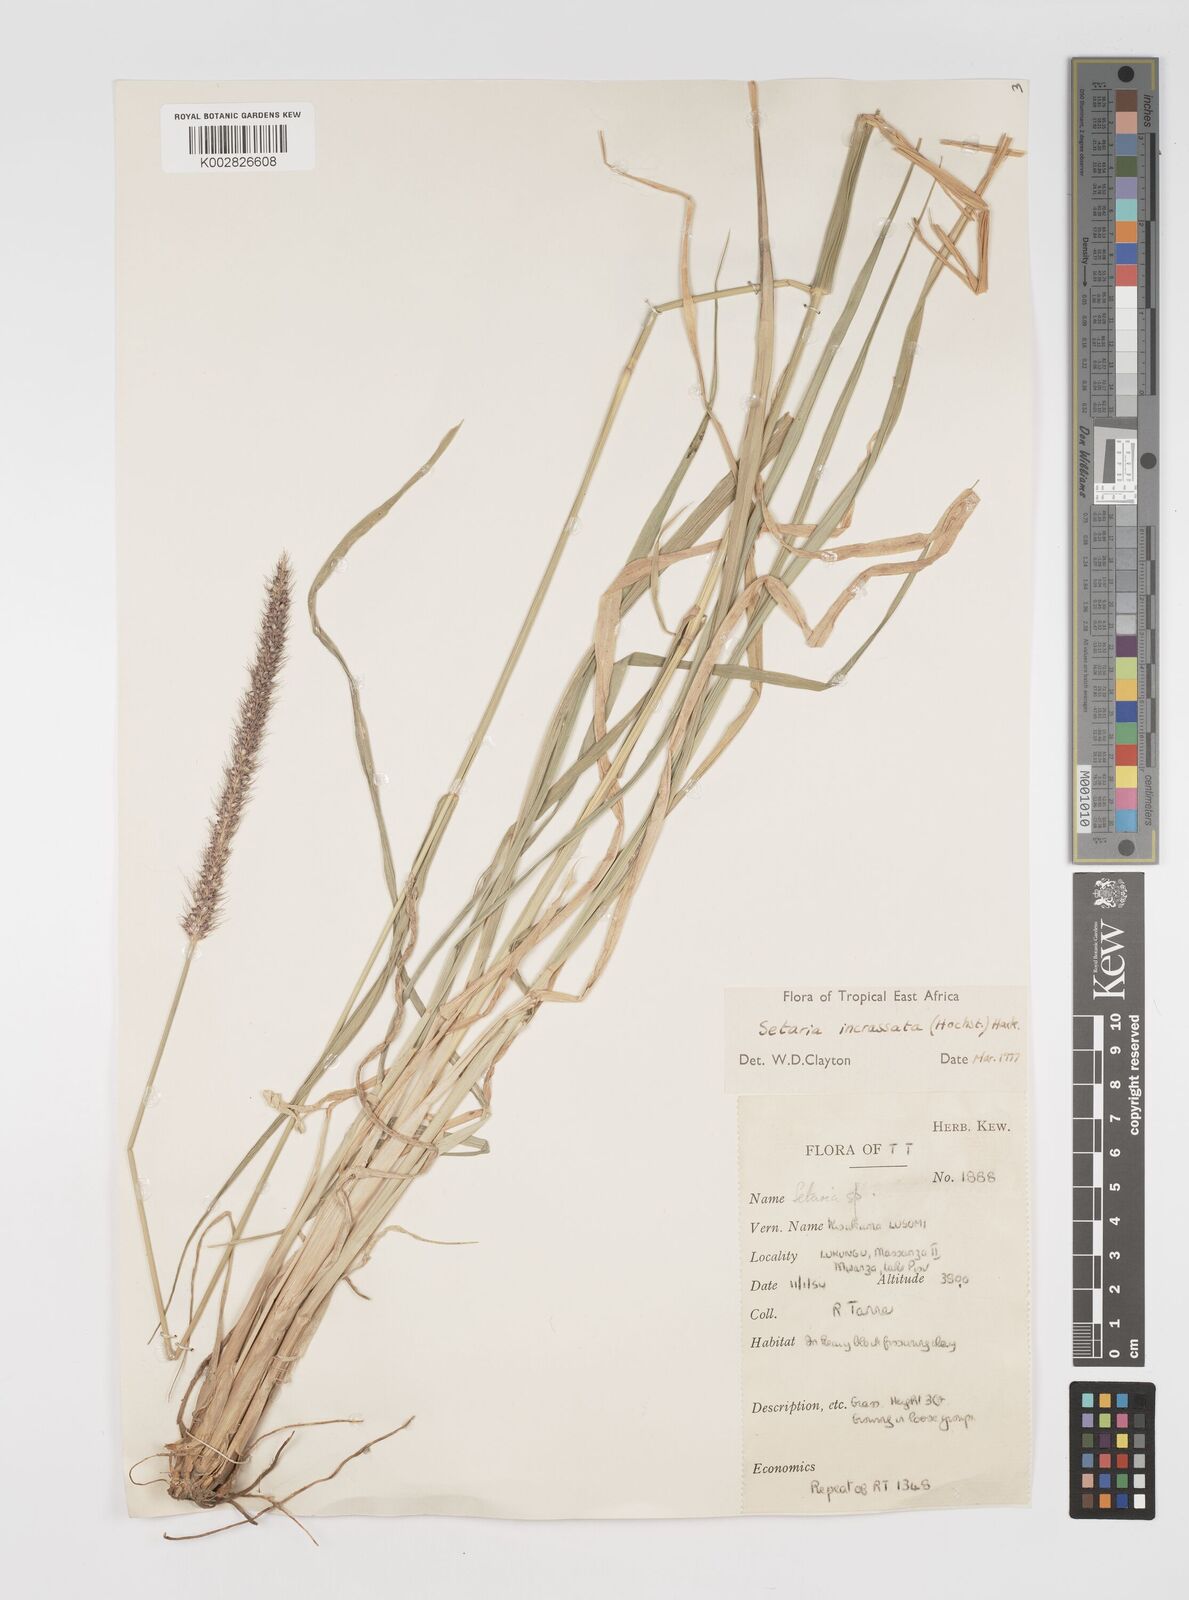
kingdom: Plantae
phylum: Tracheophyta
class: Liliopsida
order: Poales
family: Poaceae
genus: Setaria
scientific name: Setaria incrassata
